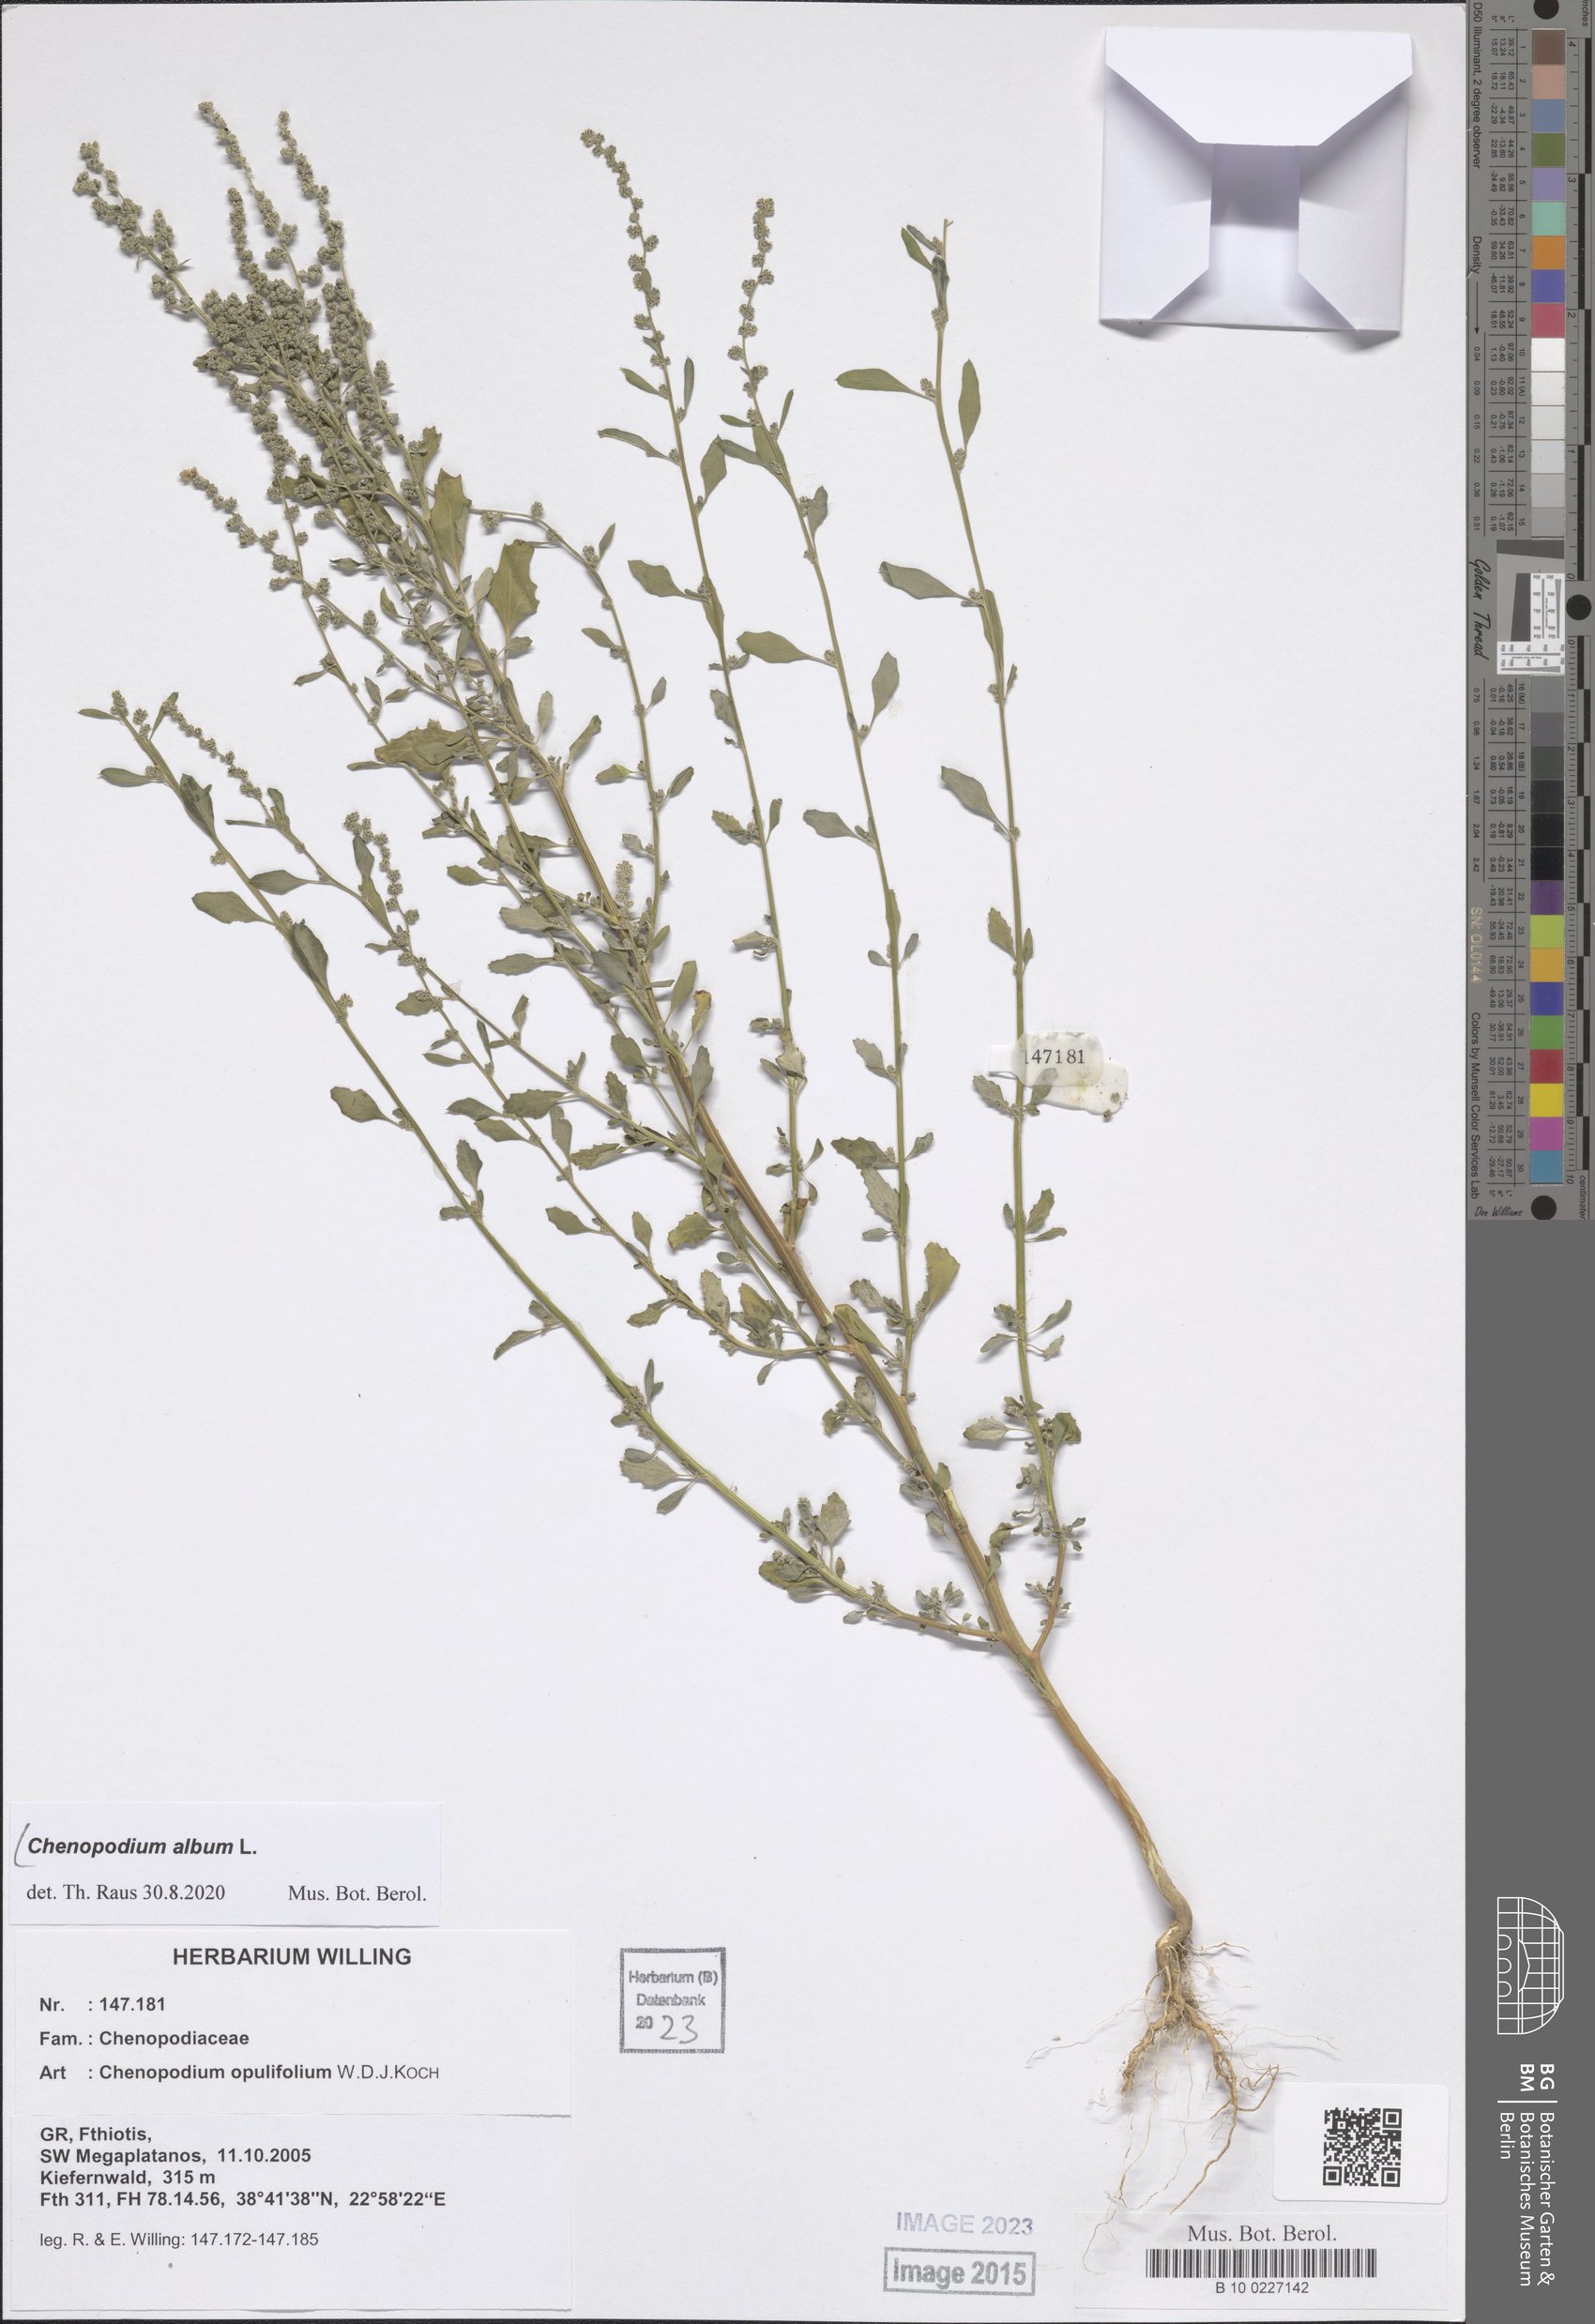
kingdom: Plantae
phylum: Tracheophyta
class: Magnoliopsida
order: Caryophyllales
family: Amaranthaceae
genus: Chenopodium
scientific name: Chenopodium album
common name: Fat-hen
